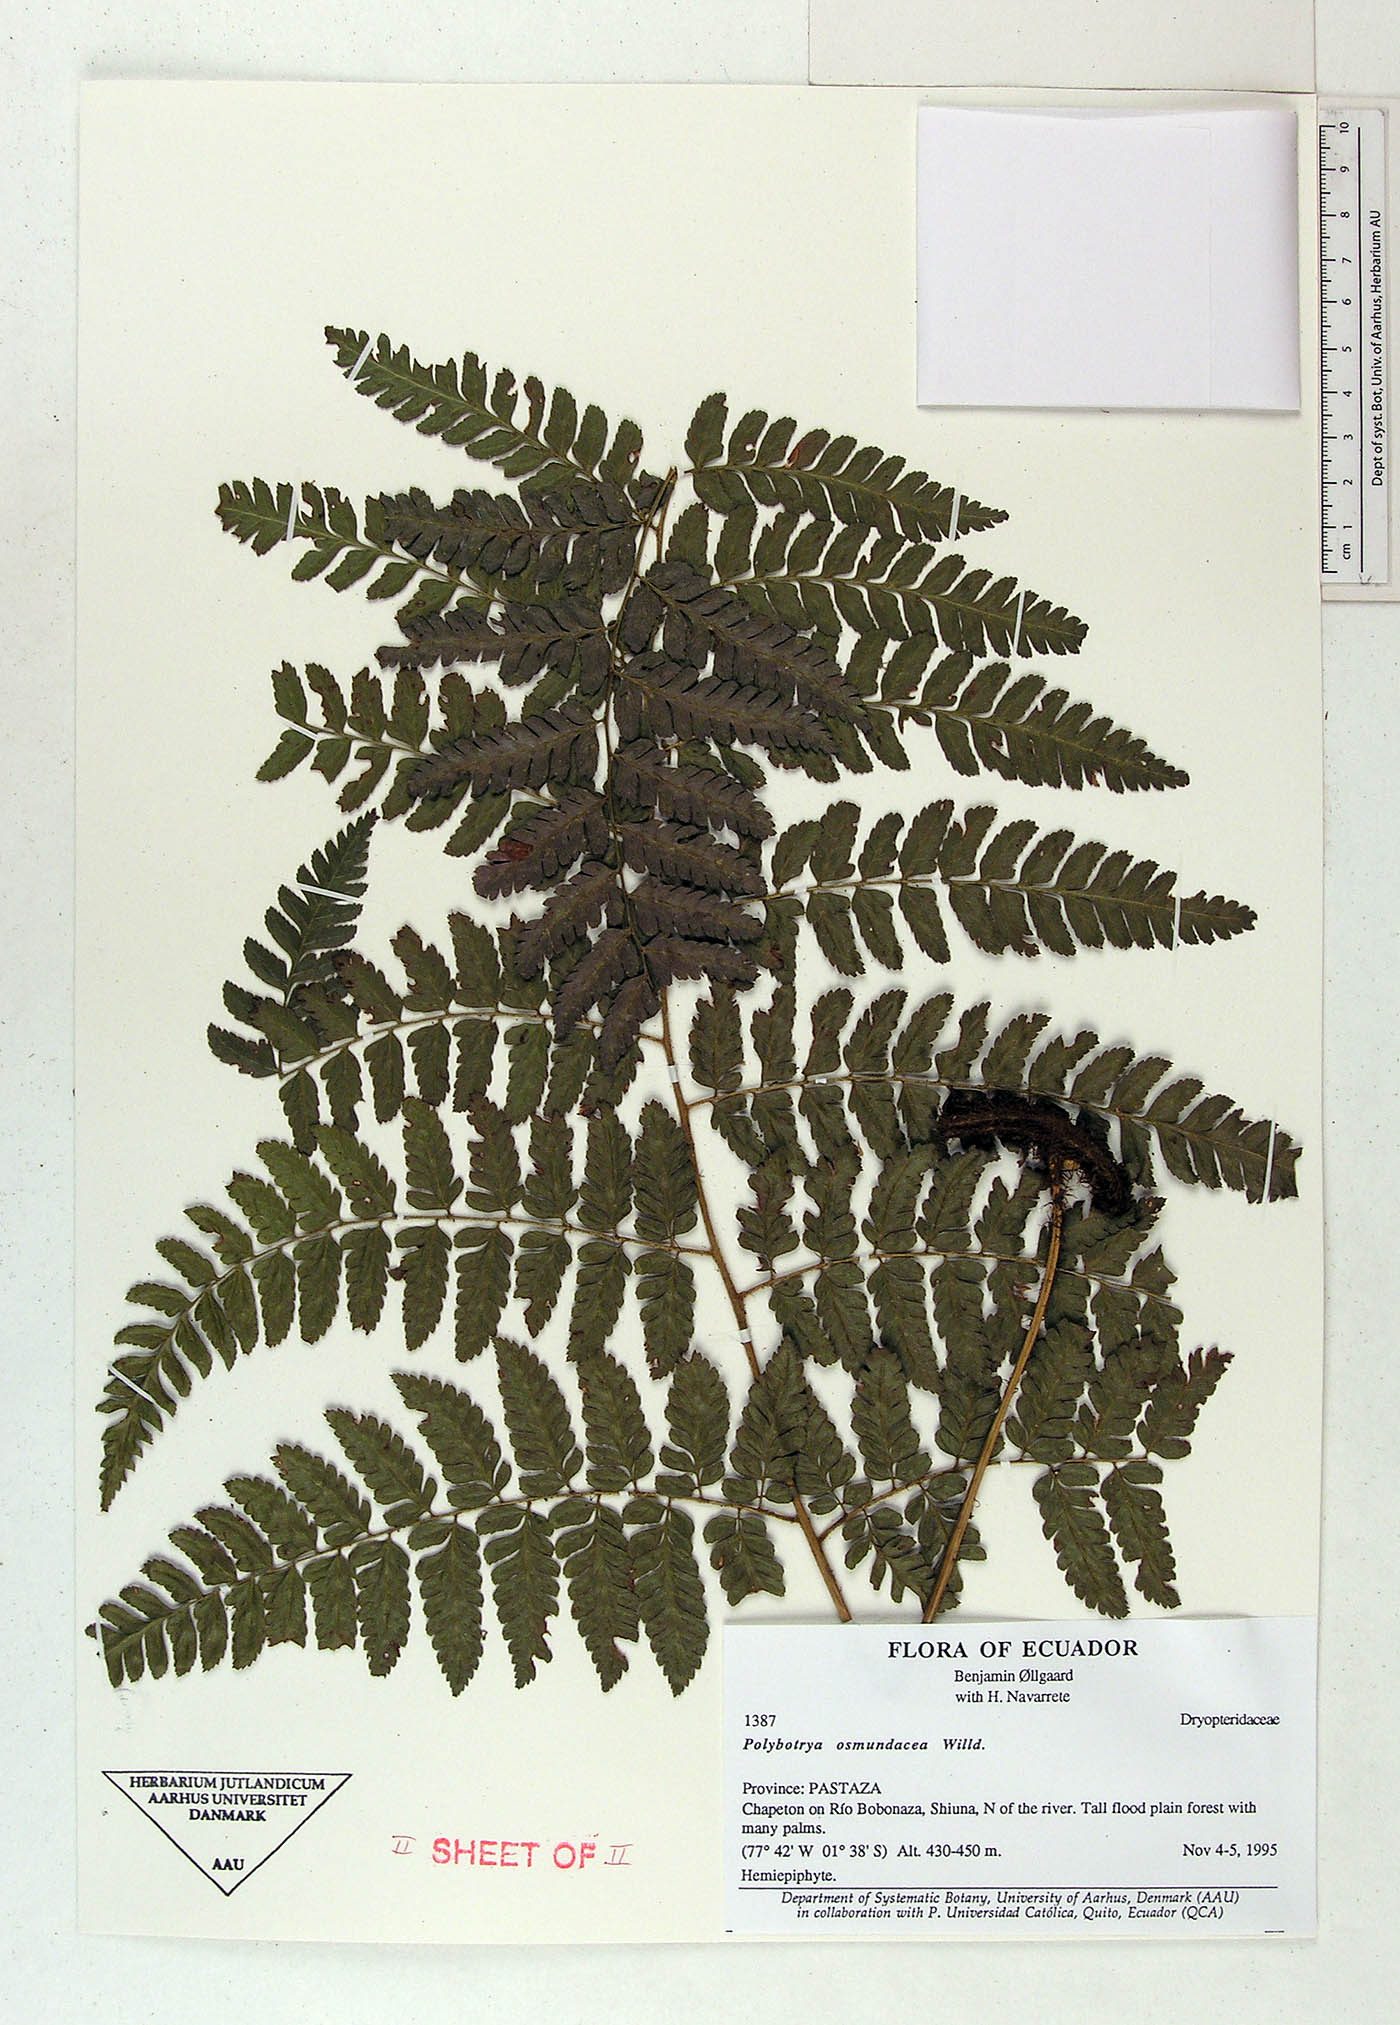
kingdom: Plantae
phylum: Tracheophyta
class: Polypodiopsida
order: Polypodiales
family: Dryopteridaceae
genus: Polybotrya
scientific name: Polybotrya osmundacea
